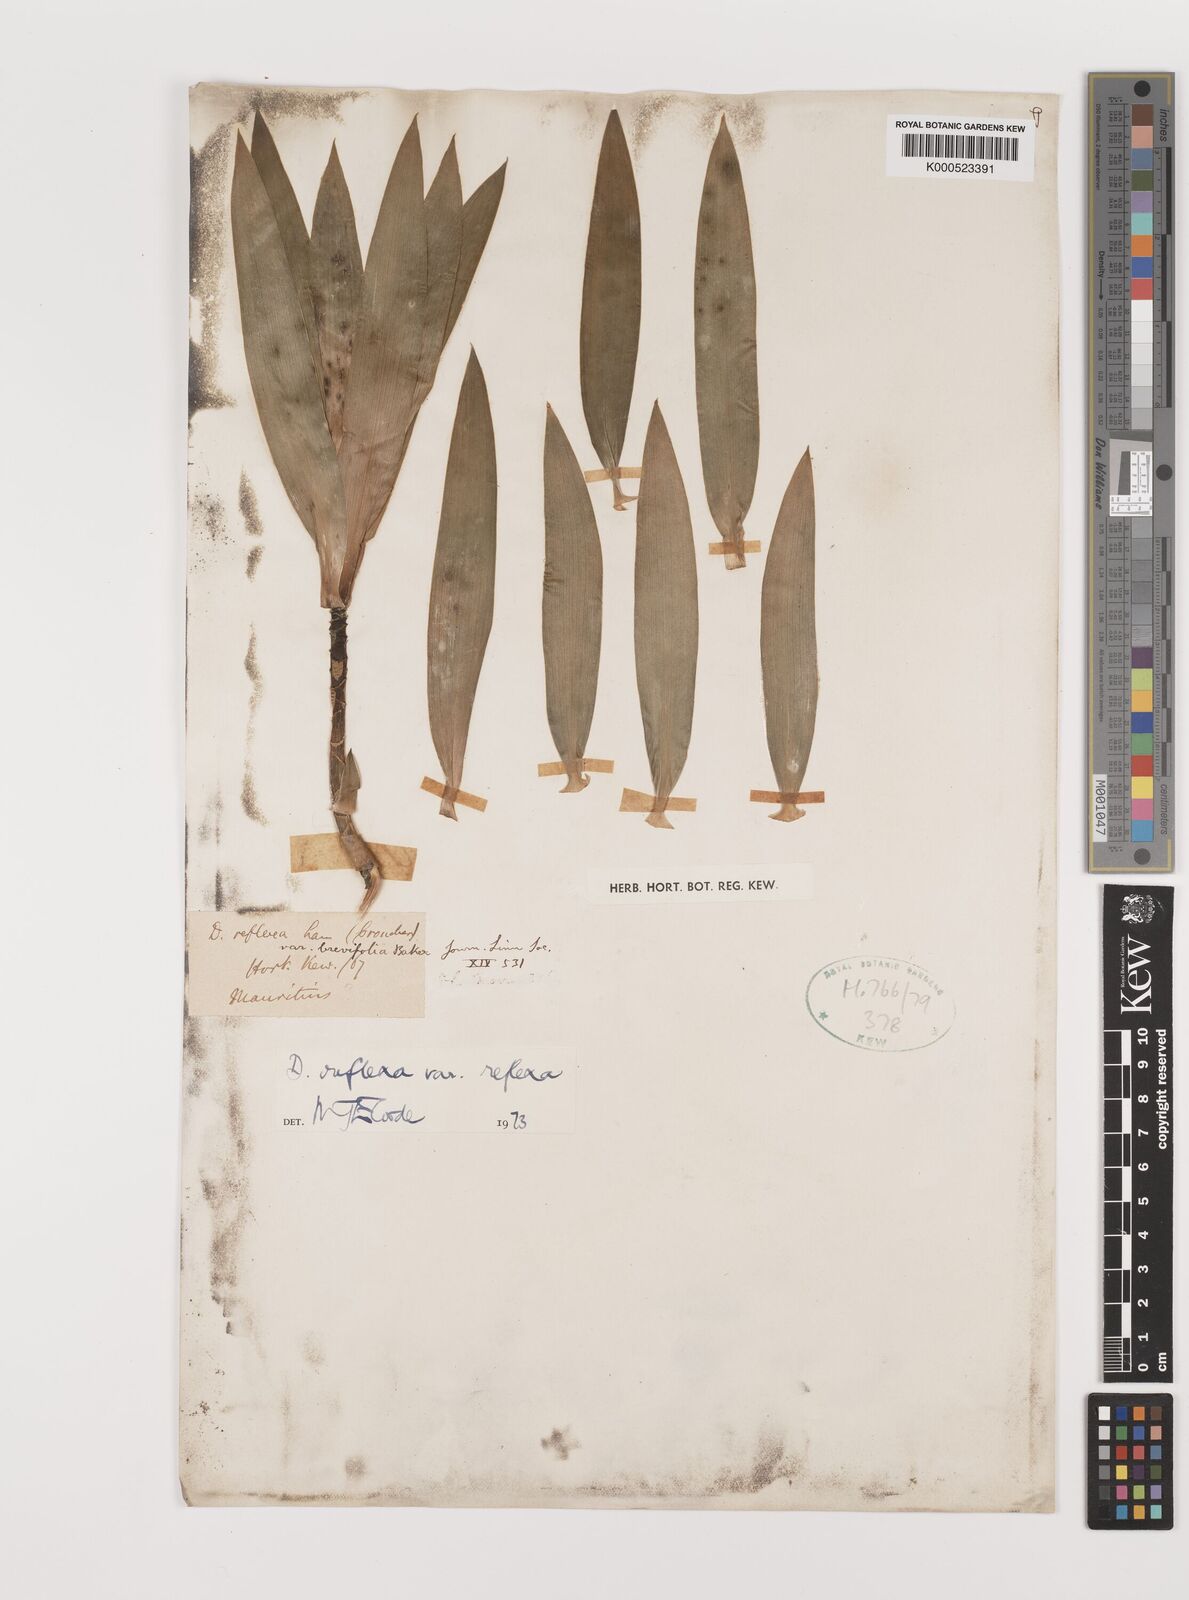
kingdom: Plantae
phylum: Tracheophyta
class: Liliopsida
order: Asparagales
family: Asparagaceae
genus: Dracaena
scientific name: Dracaena reflexa
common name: Song-of-india
